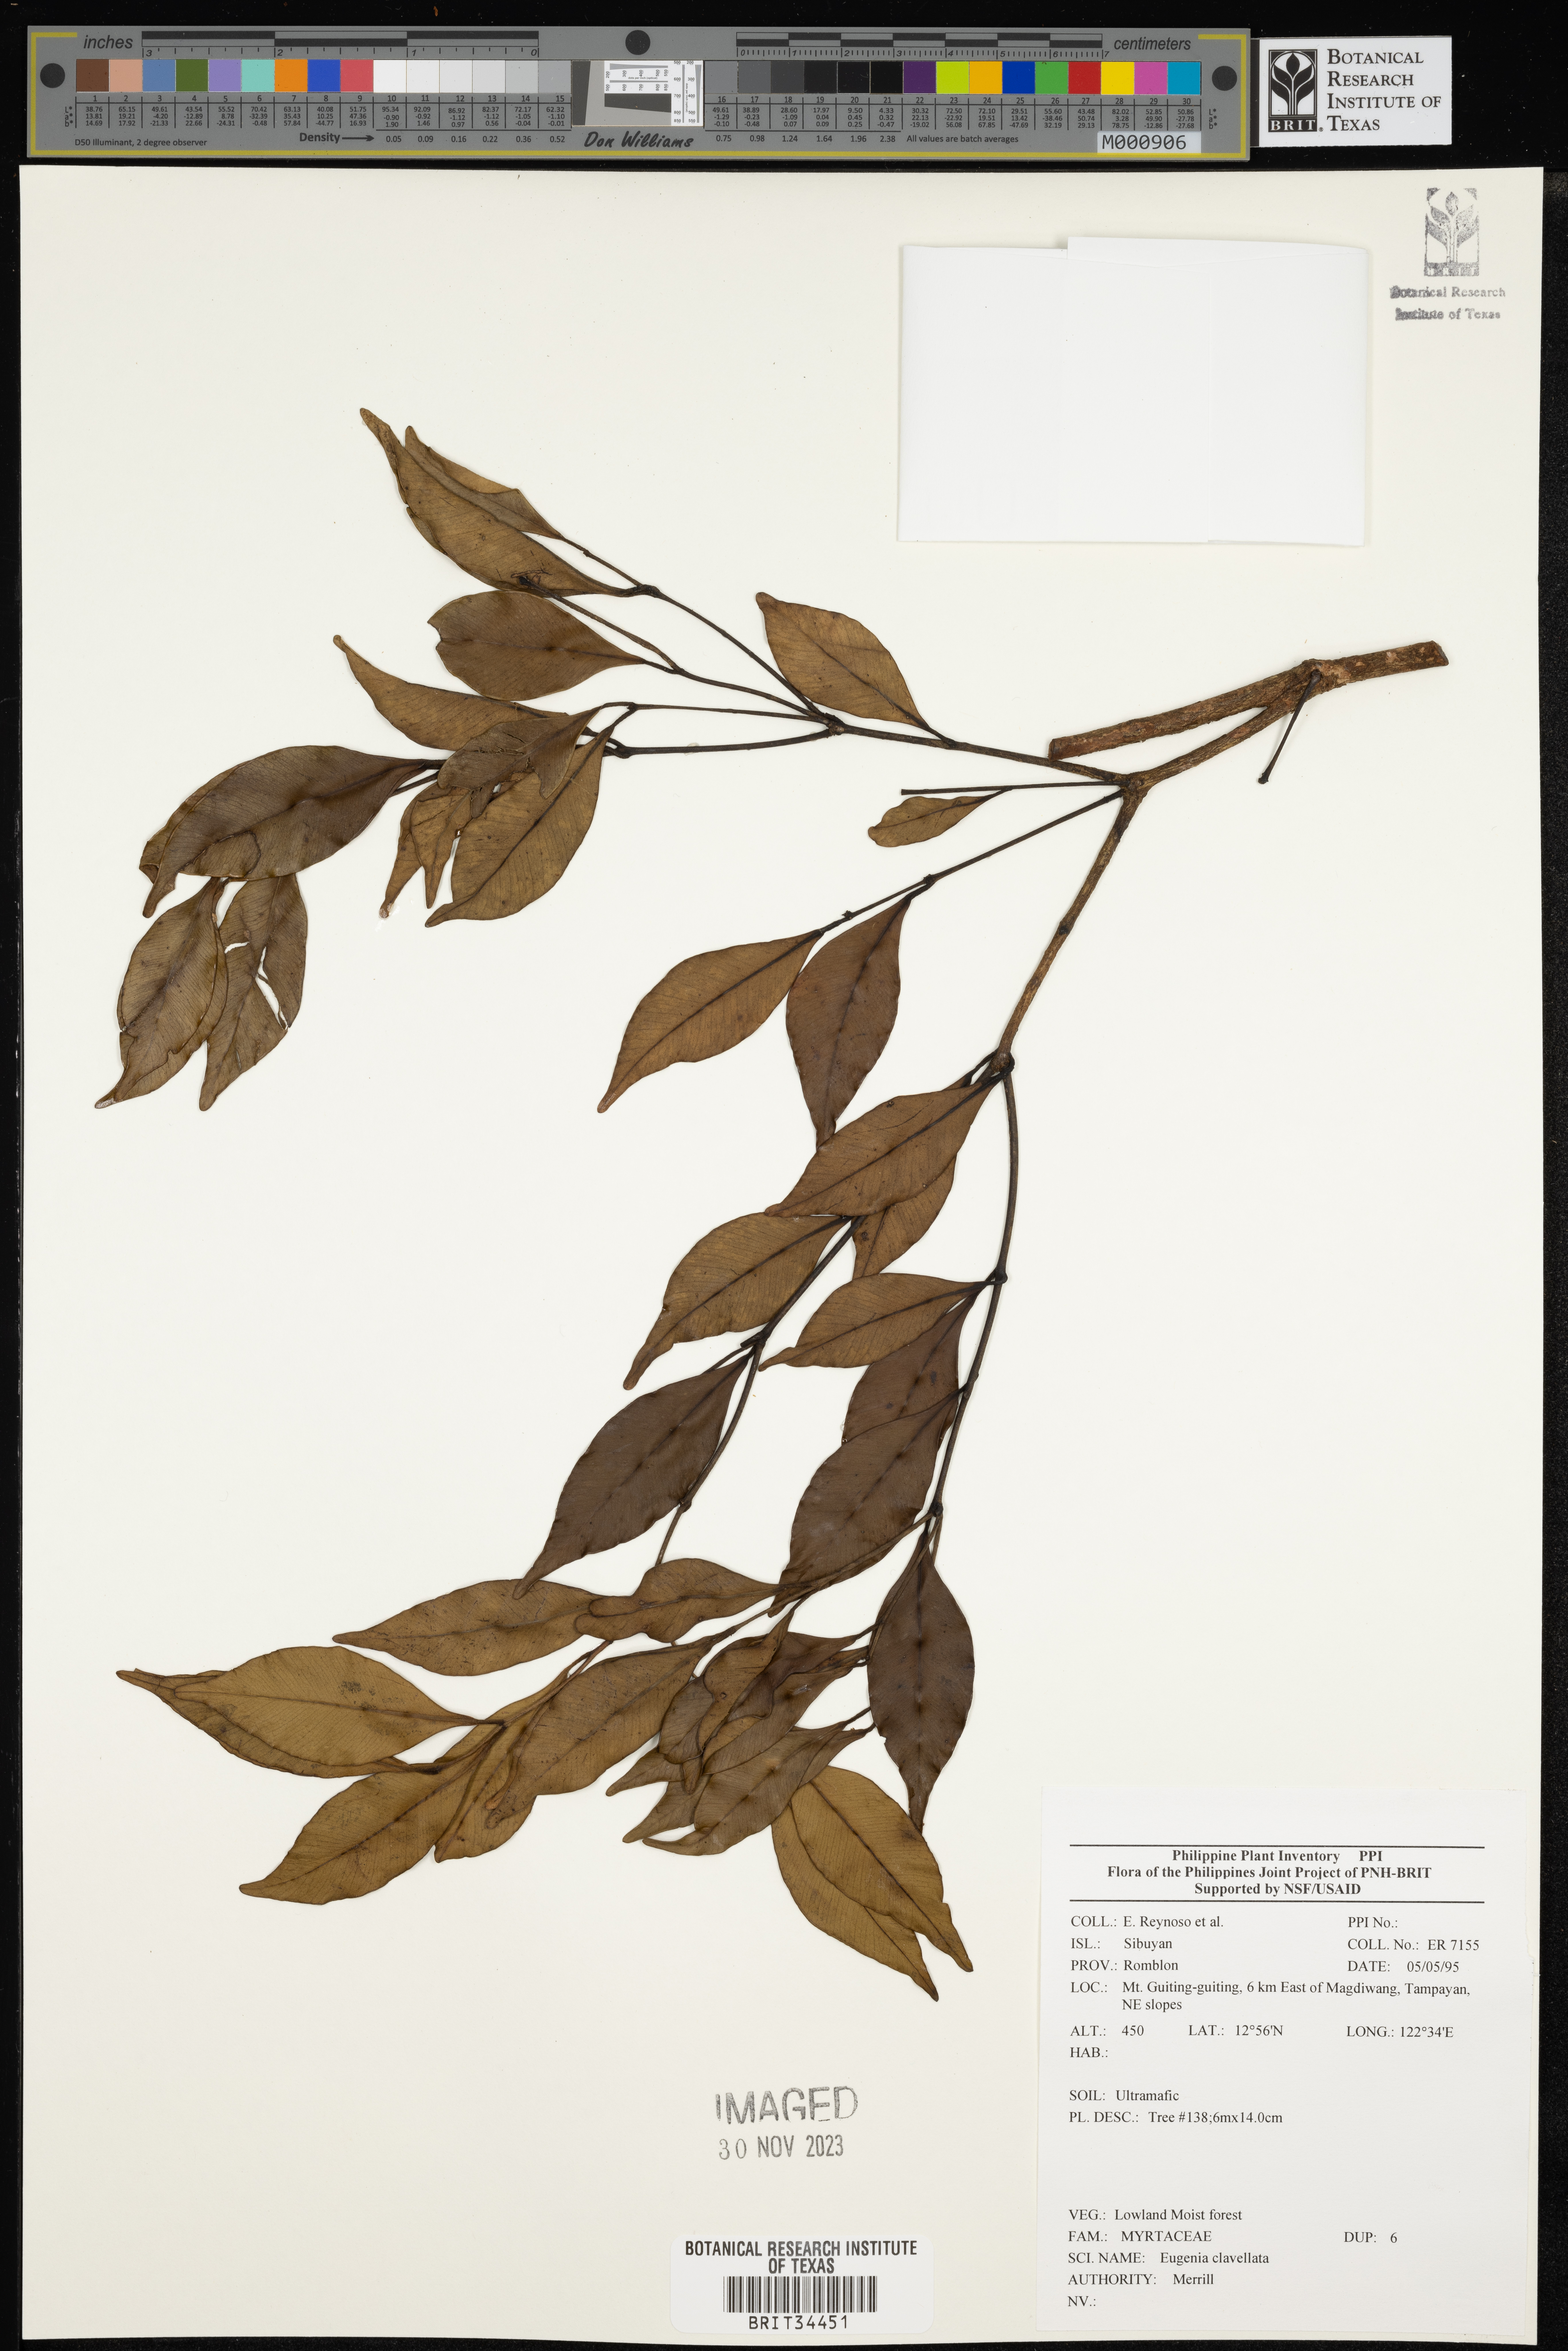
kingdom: Plantae
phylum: Tracheophyta
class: Magnoliopsida
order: Myrtales
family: Myrtaceae
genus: Eugenia
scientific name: Eugenia
